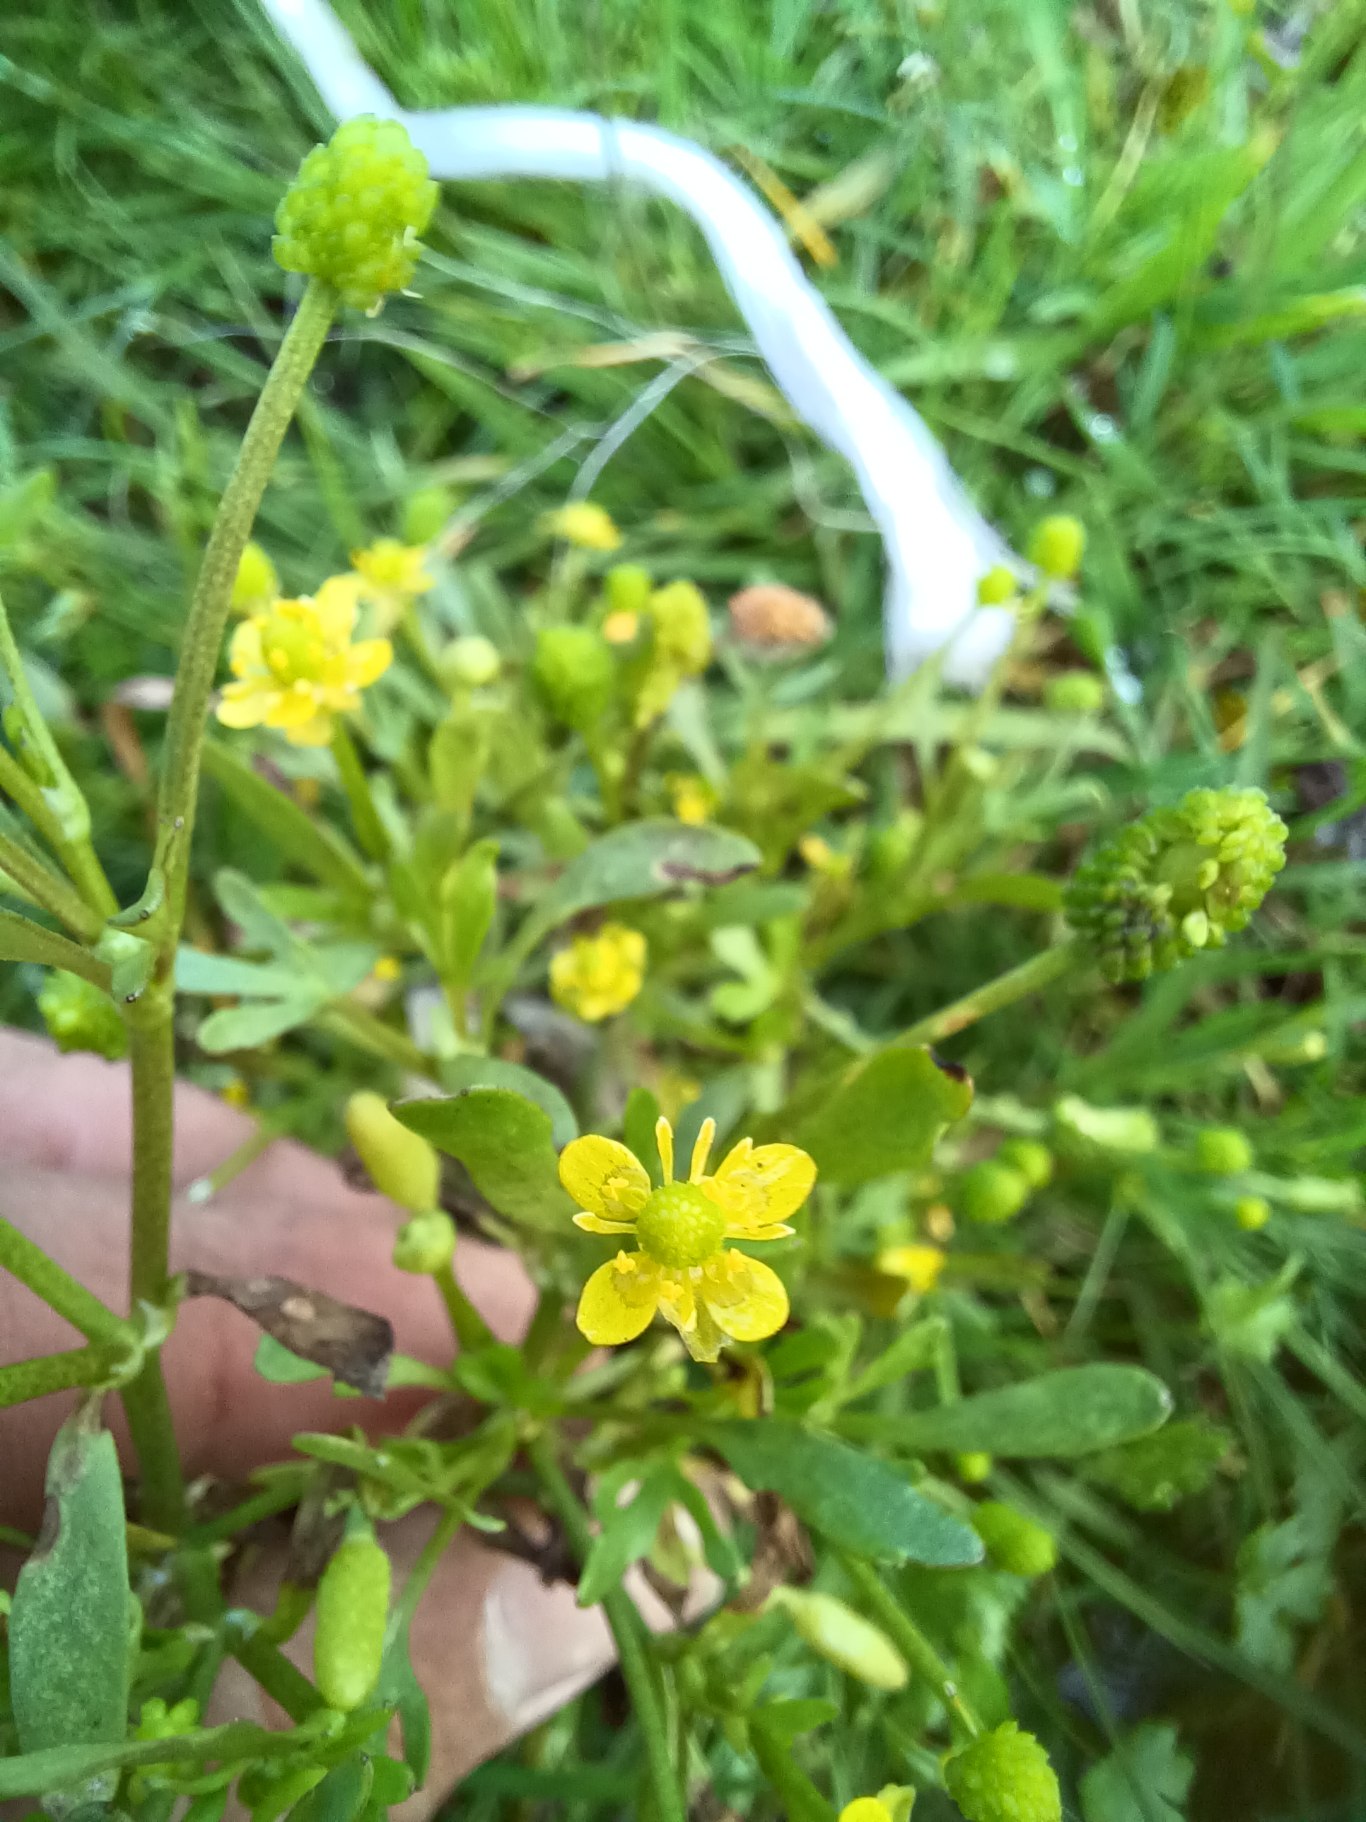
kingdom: Plantae
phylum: Tracheophyta
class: Magnoliopsida
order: Ranunculales
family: Ranunculaceae
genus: Ranunculus
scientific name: Ranunculus sceleratus
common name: Tigger-ranunkel
